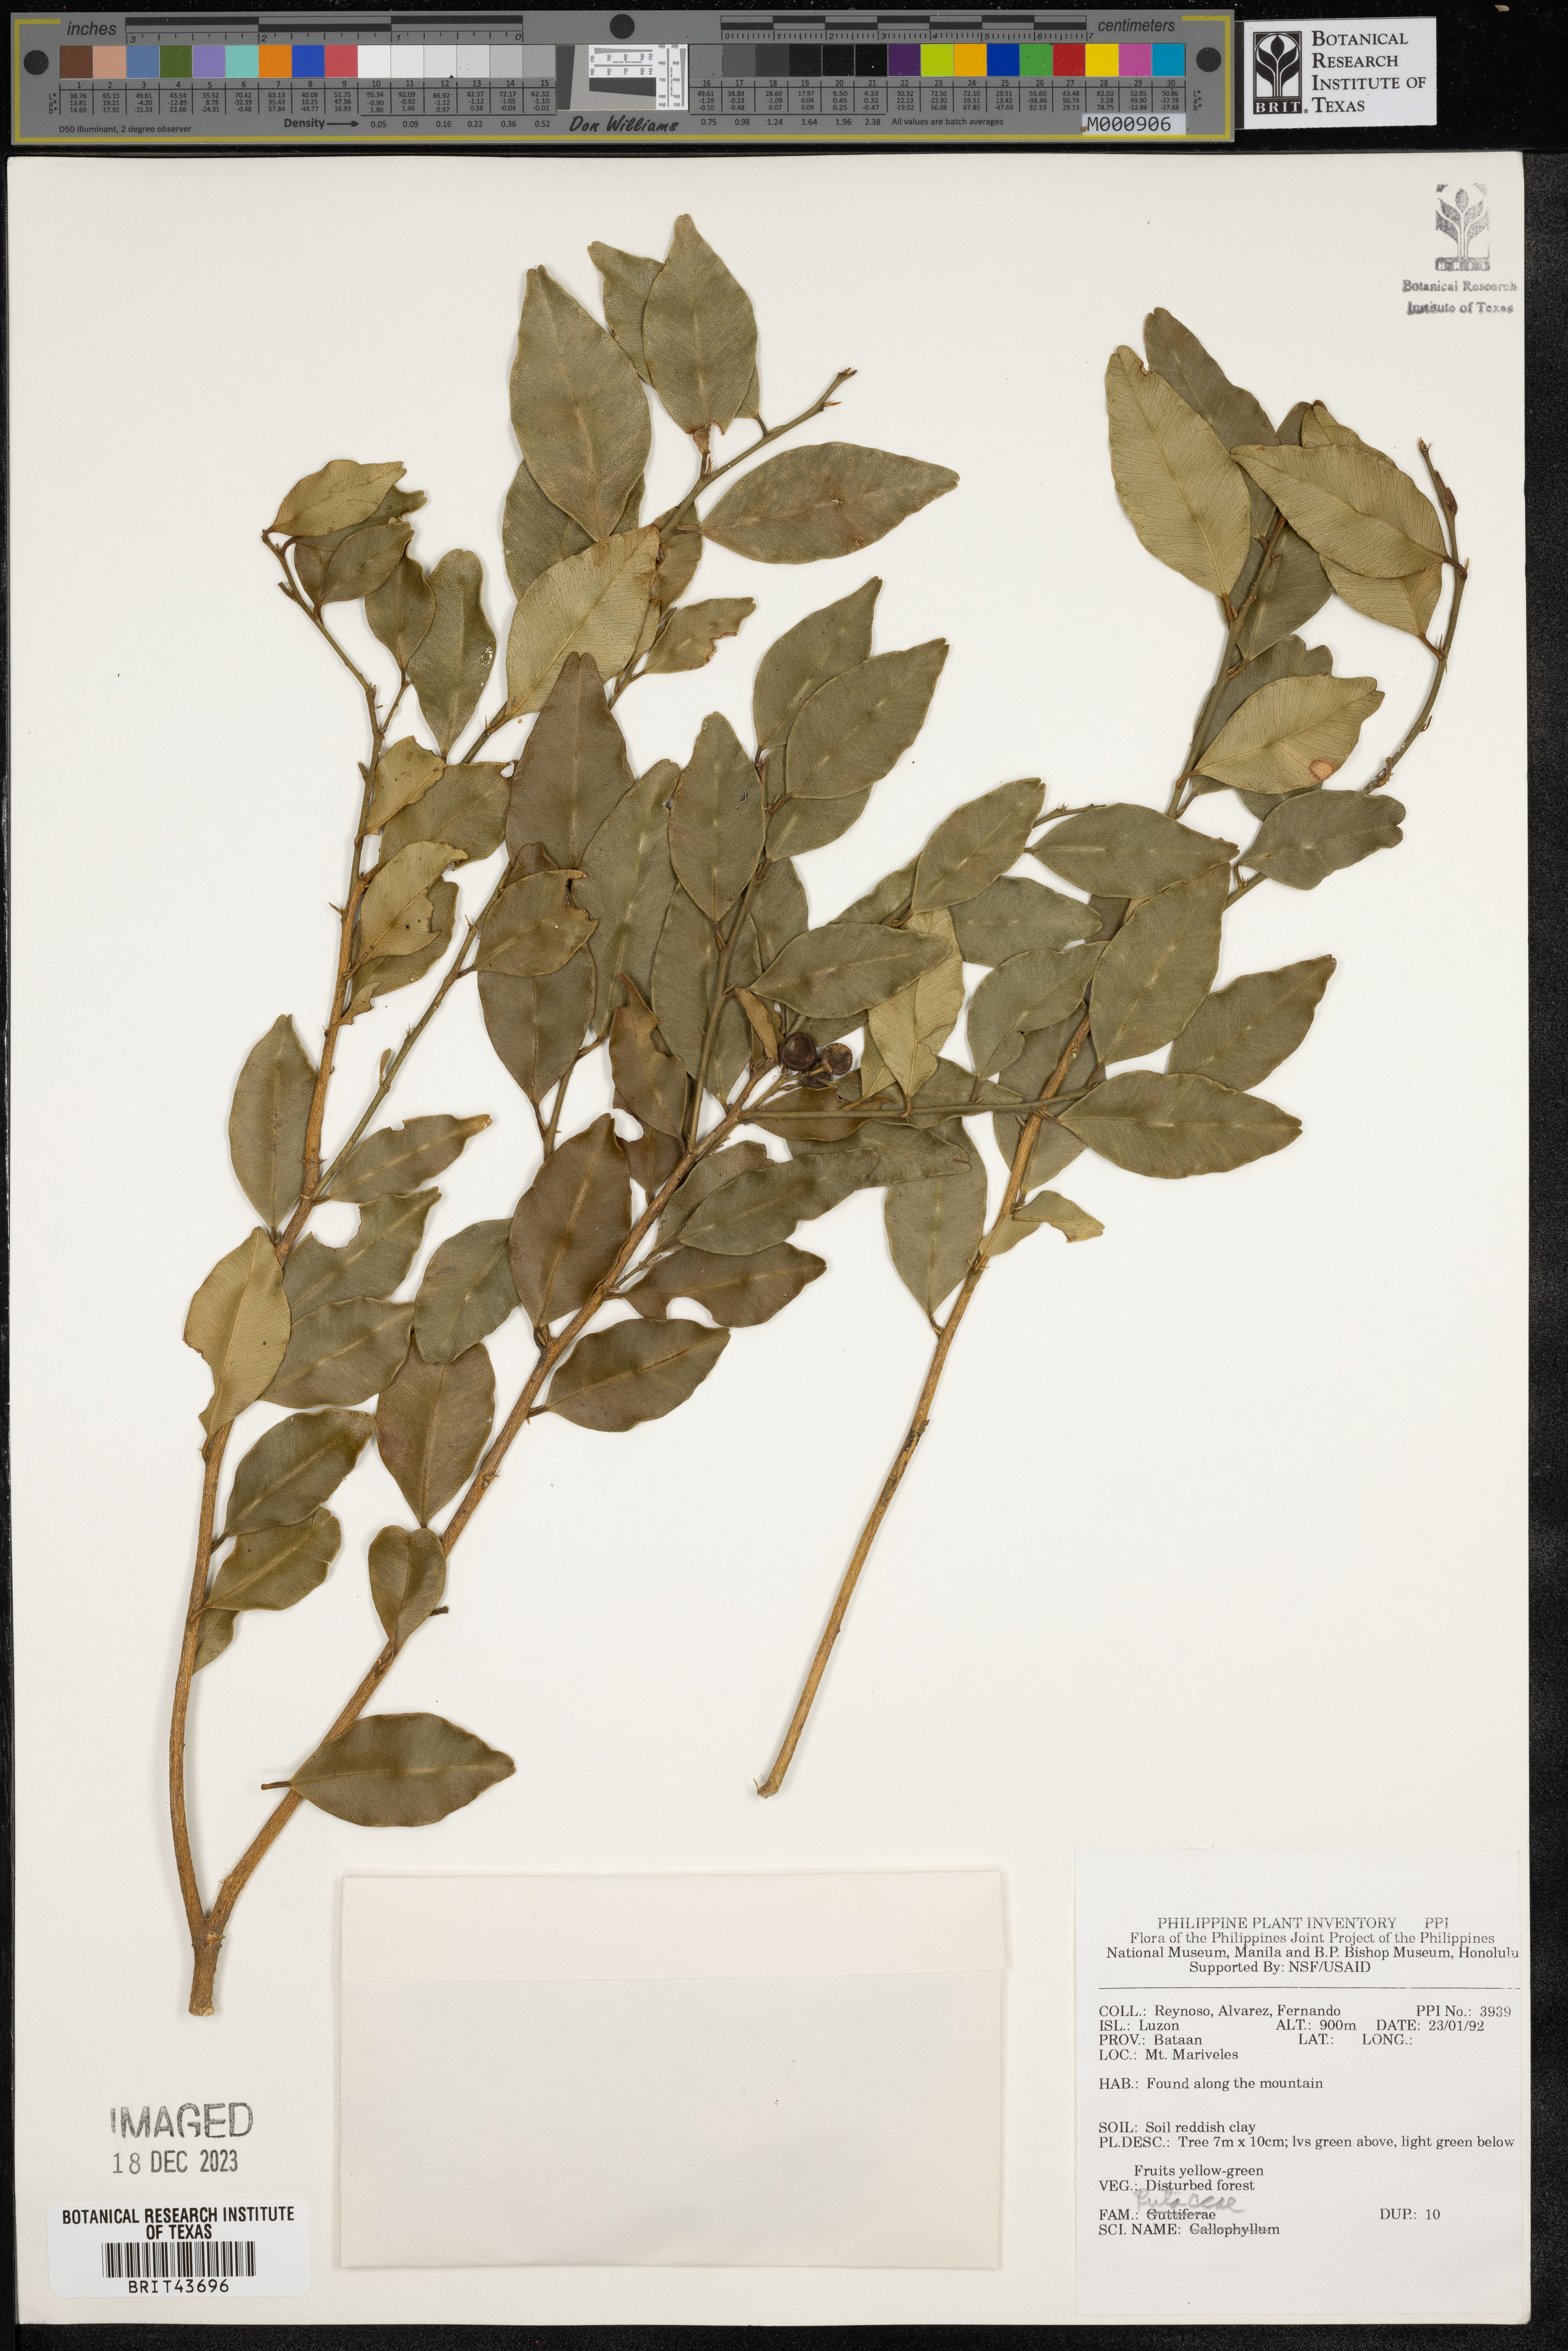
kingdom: Plantae
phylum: Tracheophyta
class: Magnoliopsida
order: Sapindales
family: Rutaceae
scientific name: Rutaceae
